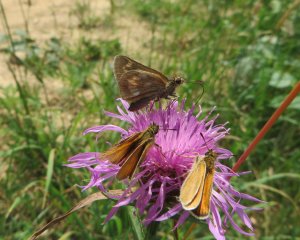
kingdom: Animalia
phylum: Arthropoda
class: Insecta
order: Lepidoptera
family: Hesperiidae
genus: Thymelicus
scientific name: Thymelicus lineola
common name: European Skipper
